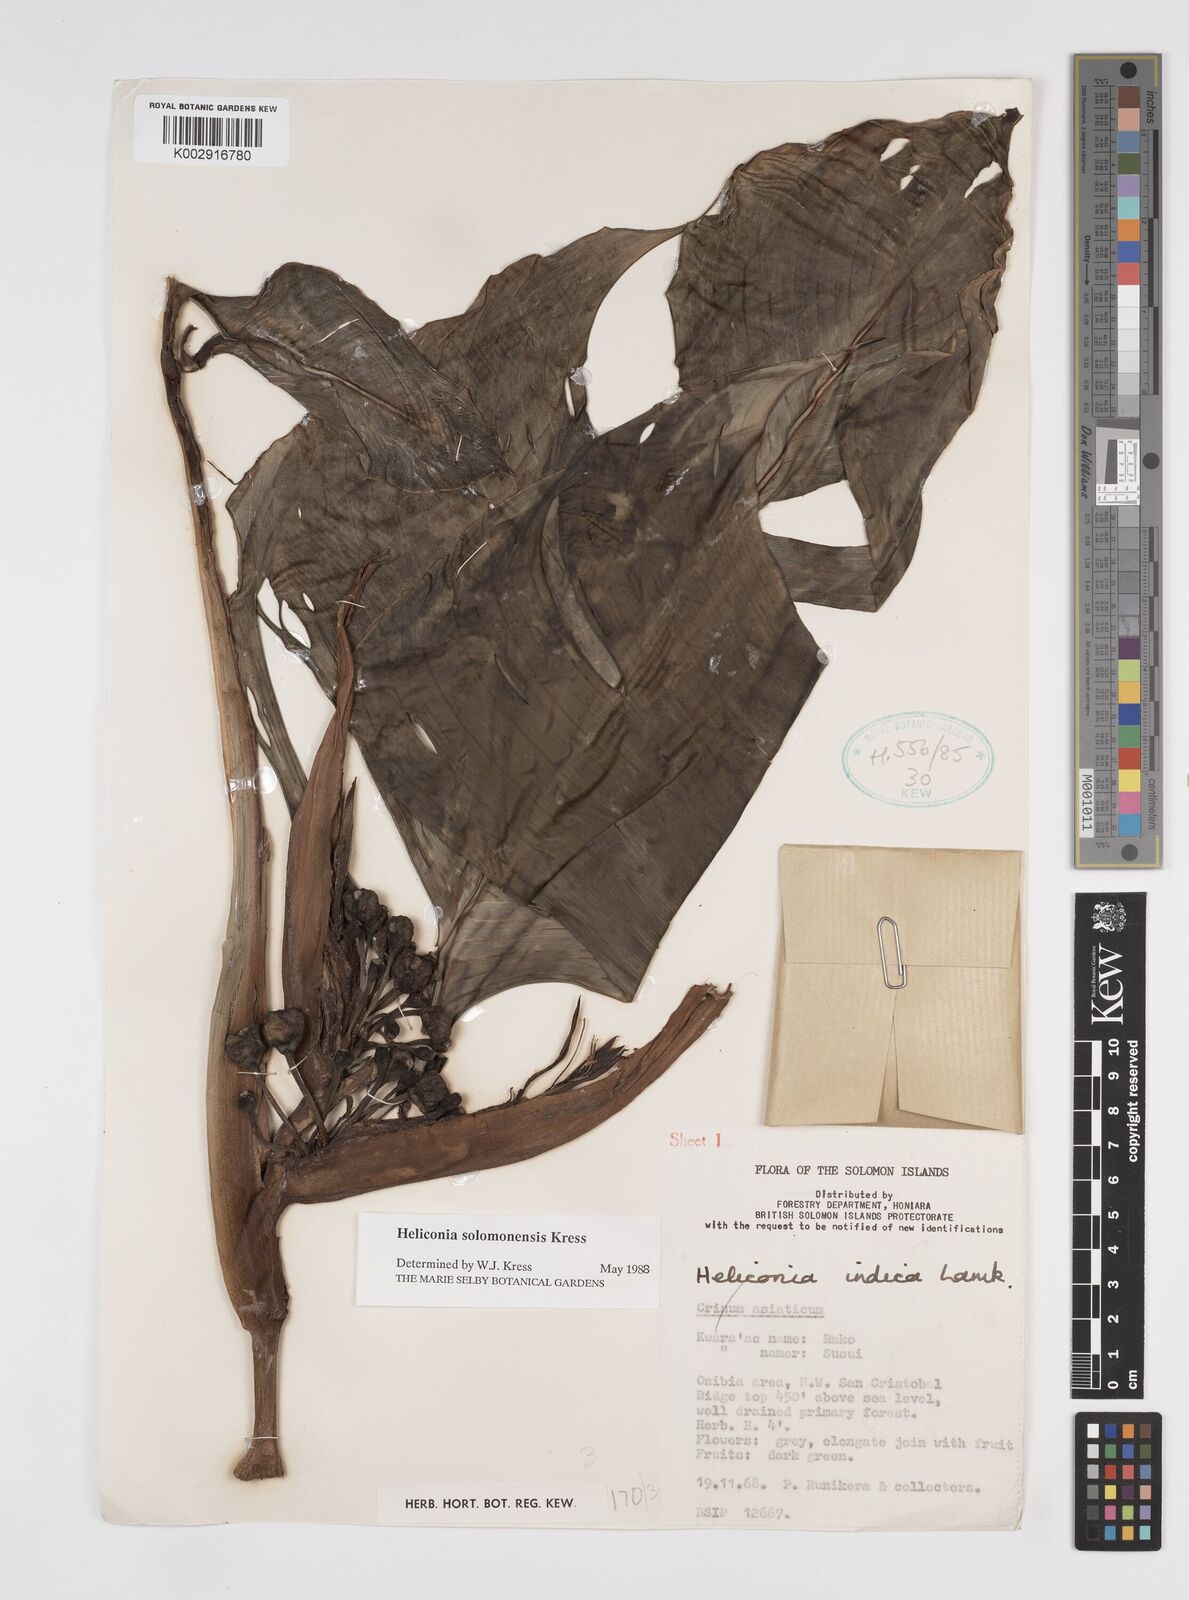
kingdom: Plantae
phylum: Tracheophyta
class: Liliopsida
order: Zingiberales
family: Heliconiaceae
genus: Heliconia
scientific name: Heliconia solomonensis
